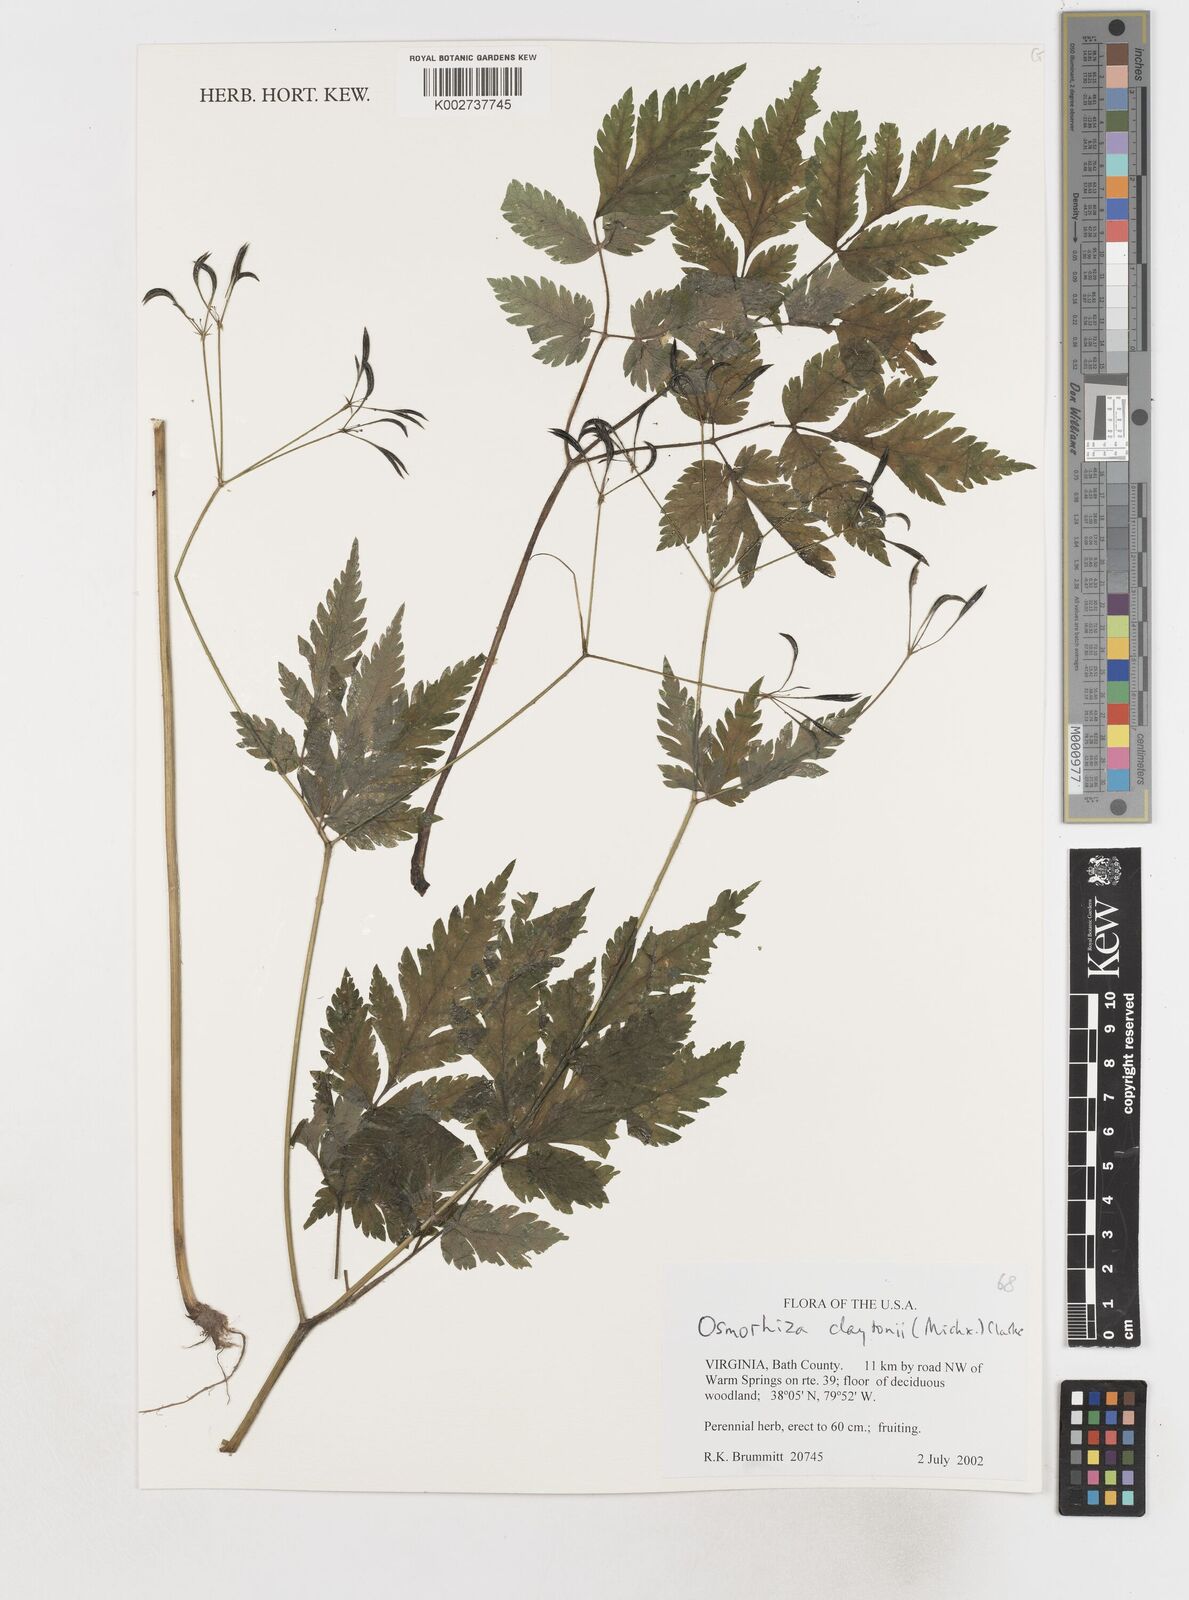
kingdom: Plantae
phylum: Tracheophyta
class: Magnoliopsida
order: Apiales
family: Apiaceae
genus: Osmorhiza
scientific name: Osmorhiza claytonii
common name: Hairy sweet cicely
